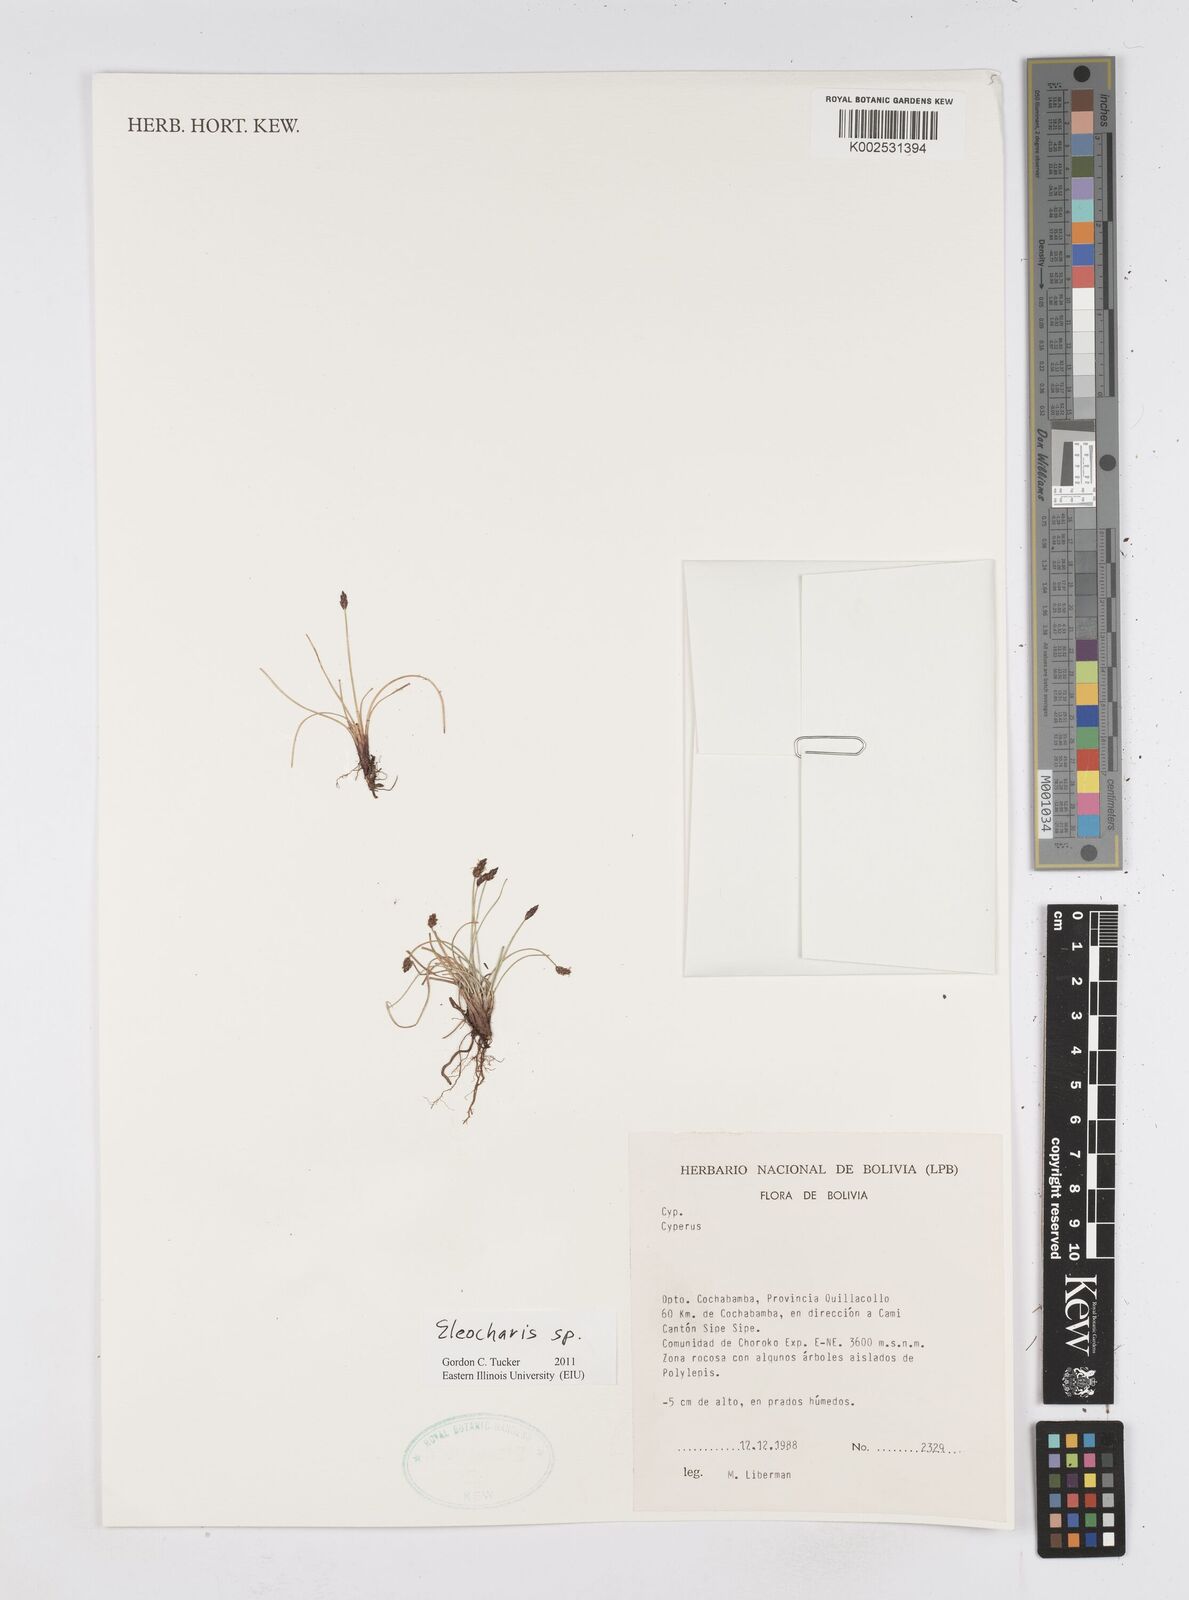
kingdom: Plantae
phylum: Tracheophyta
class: Liliopsida
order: Poales
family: Cyperaceae
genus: Eleocharis
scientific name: Eleocharis
